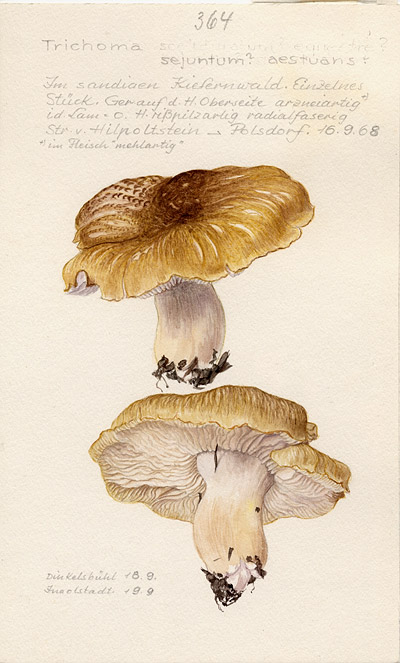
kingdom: Fungi
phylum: Basidiomycota
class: Agaricomycetes
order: Agaricales
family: Tricholomataceae
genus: Tricholoma
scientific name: Tricholoma sejunctum
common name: Deceiving knight
